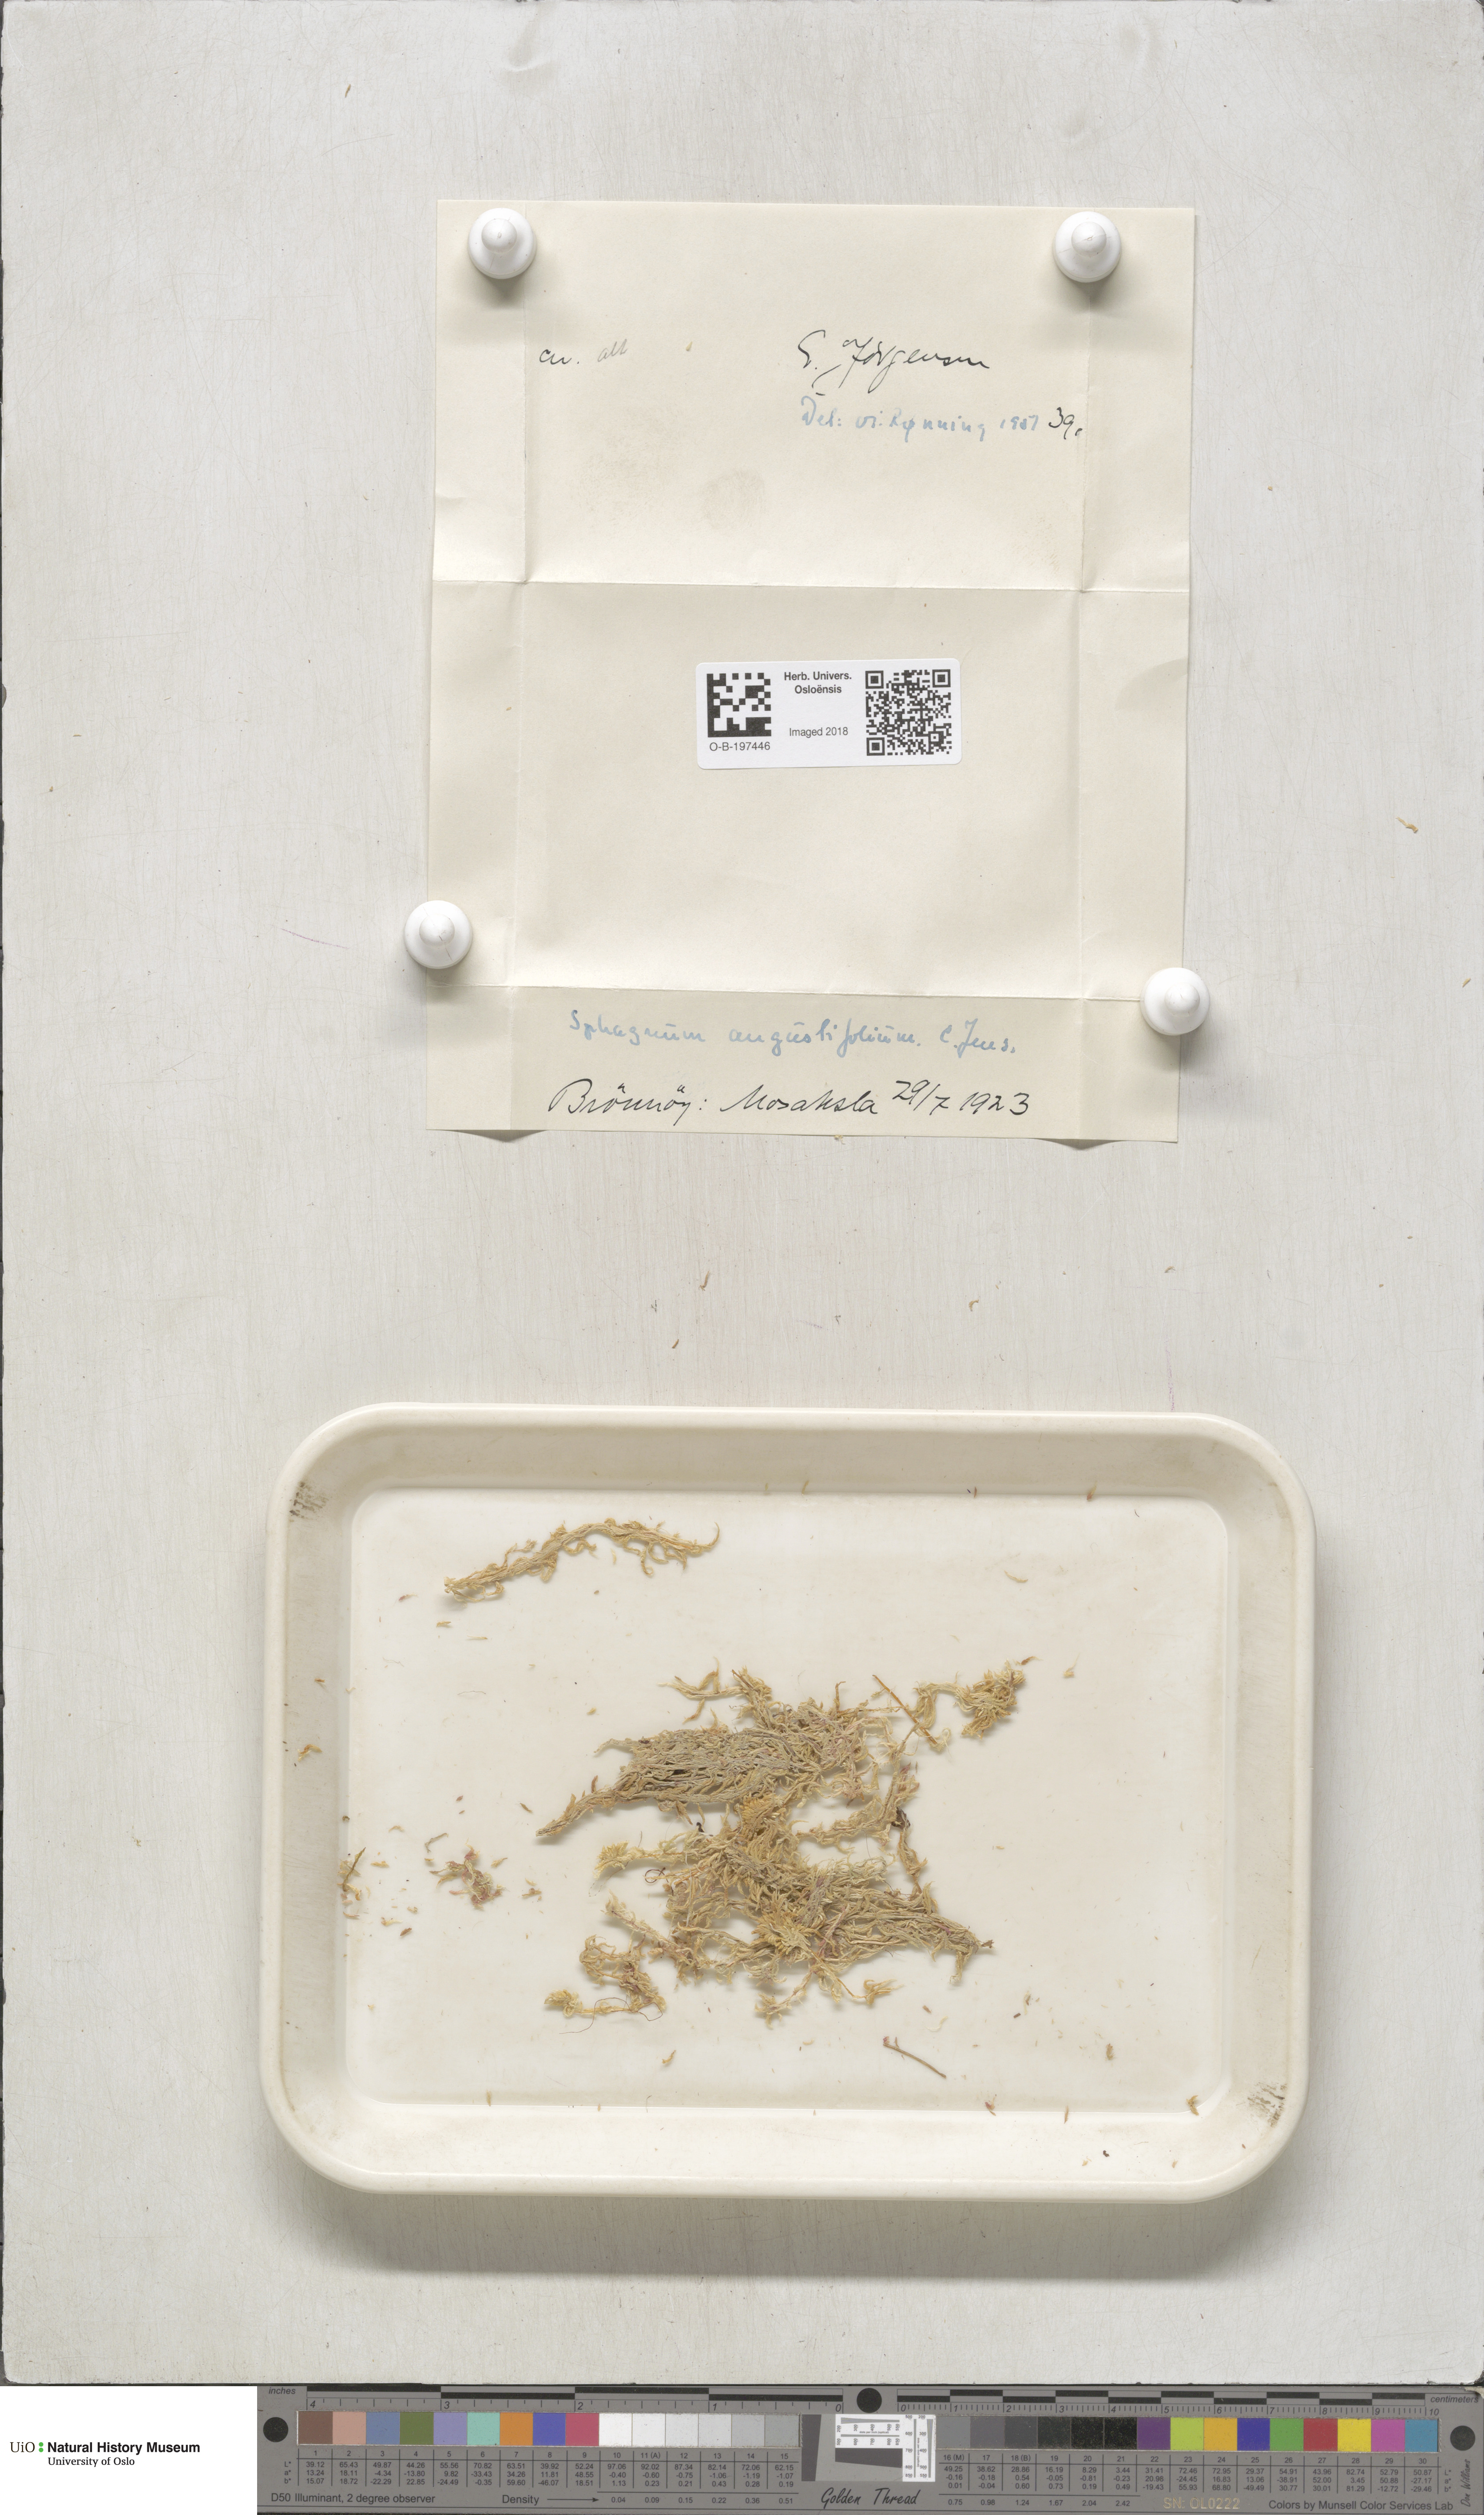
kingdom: Plantae
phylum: Bryophyta
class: Sphagnopsida
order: Sphagnales
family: Sphagnaceae
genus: Sphagnum
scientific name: Sphagnum angustifolium
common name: Narrow-leaved peat moss
